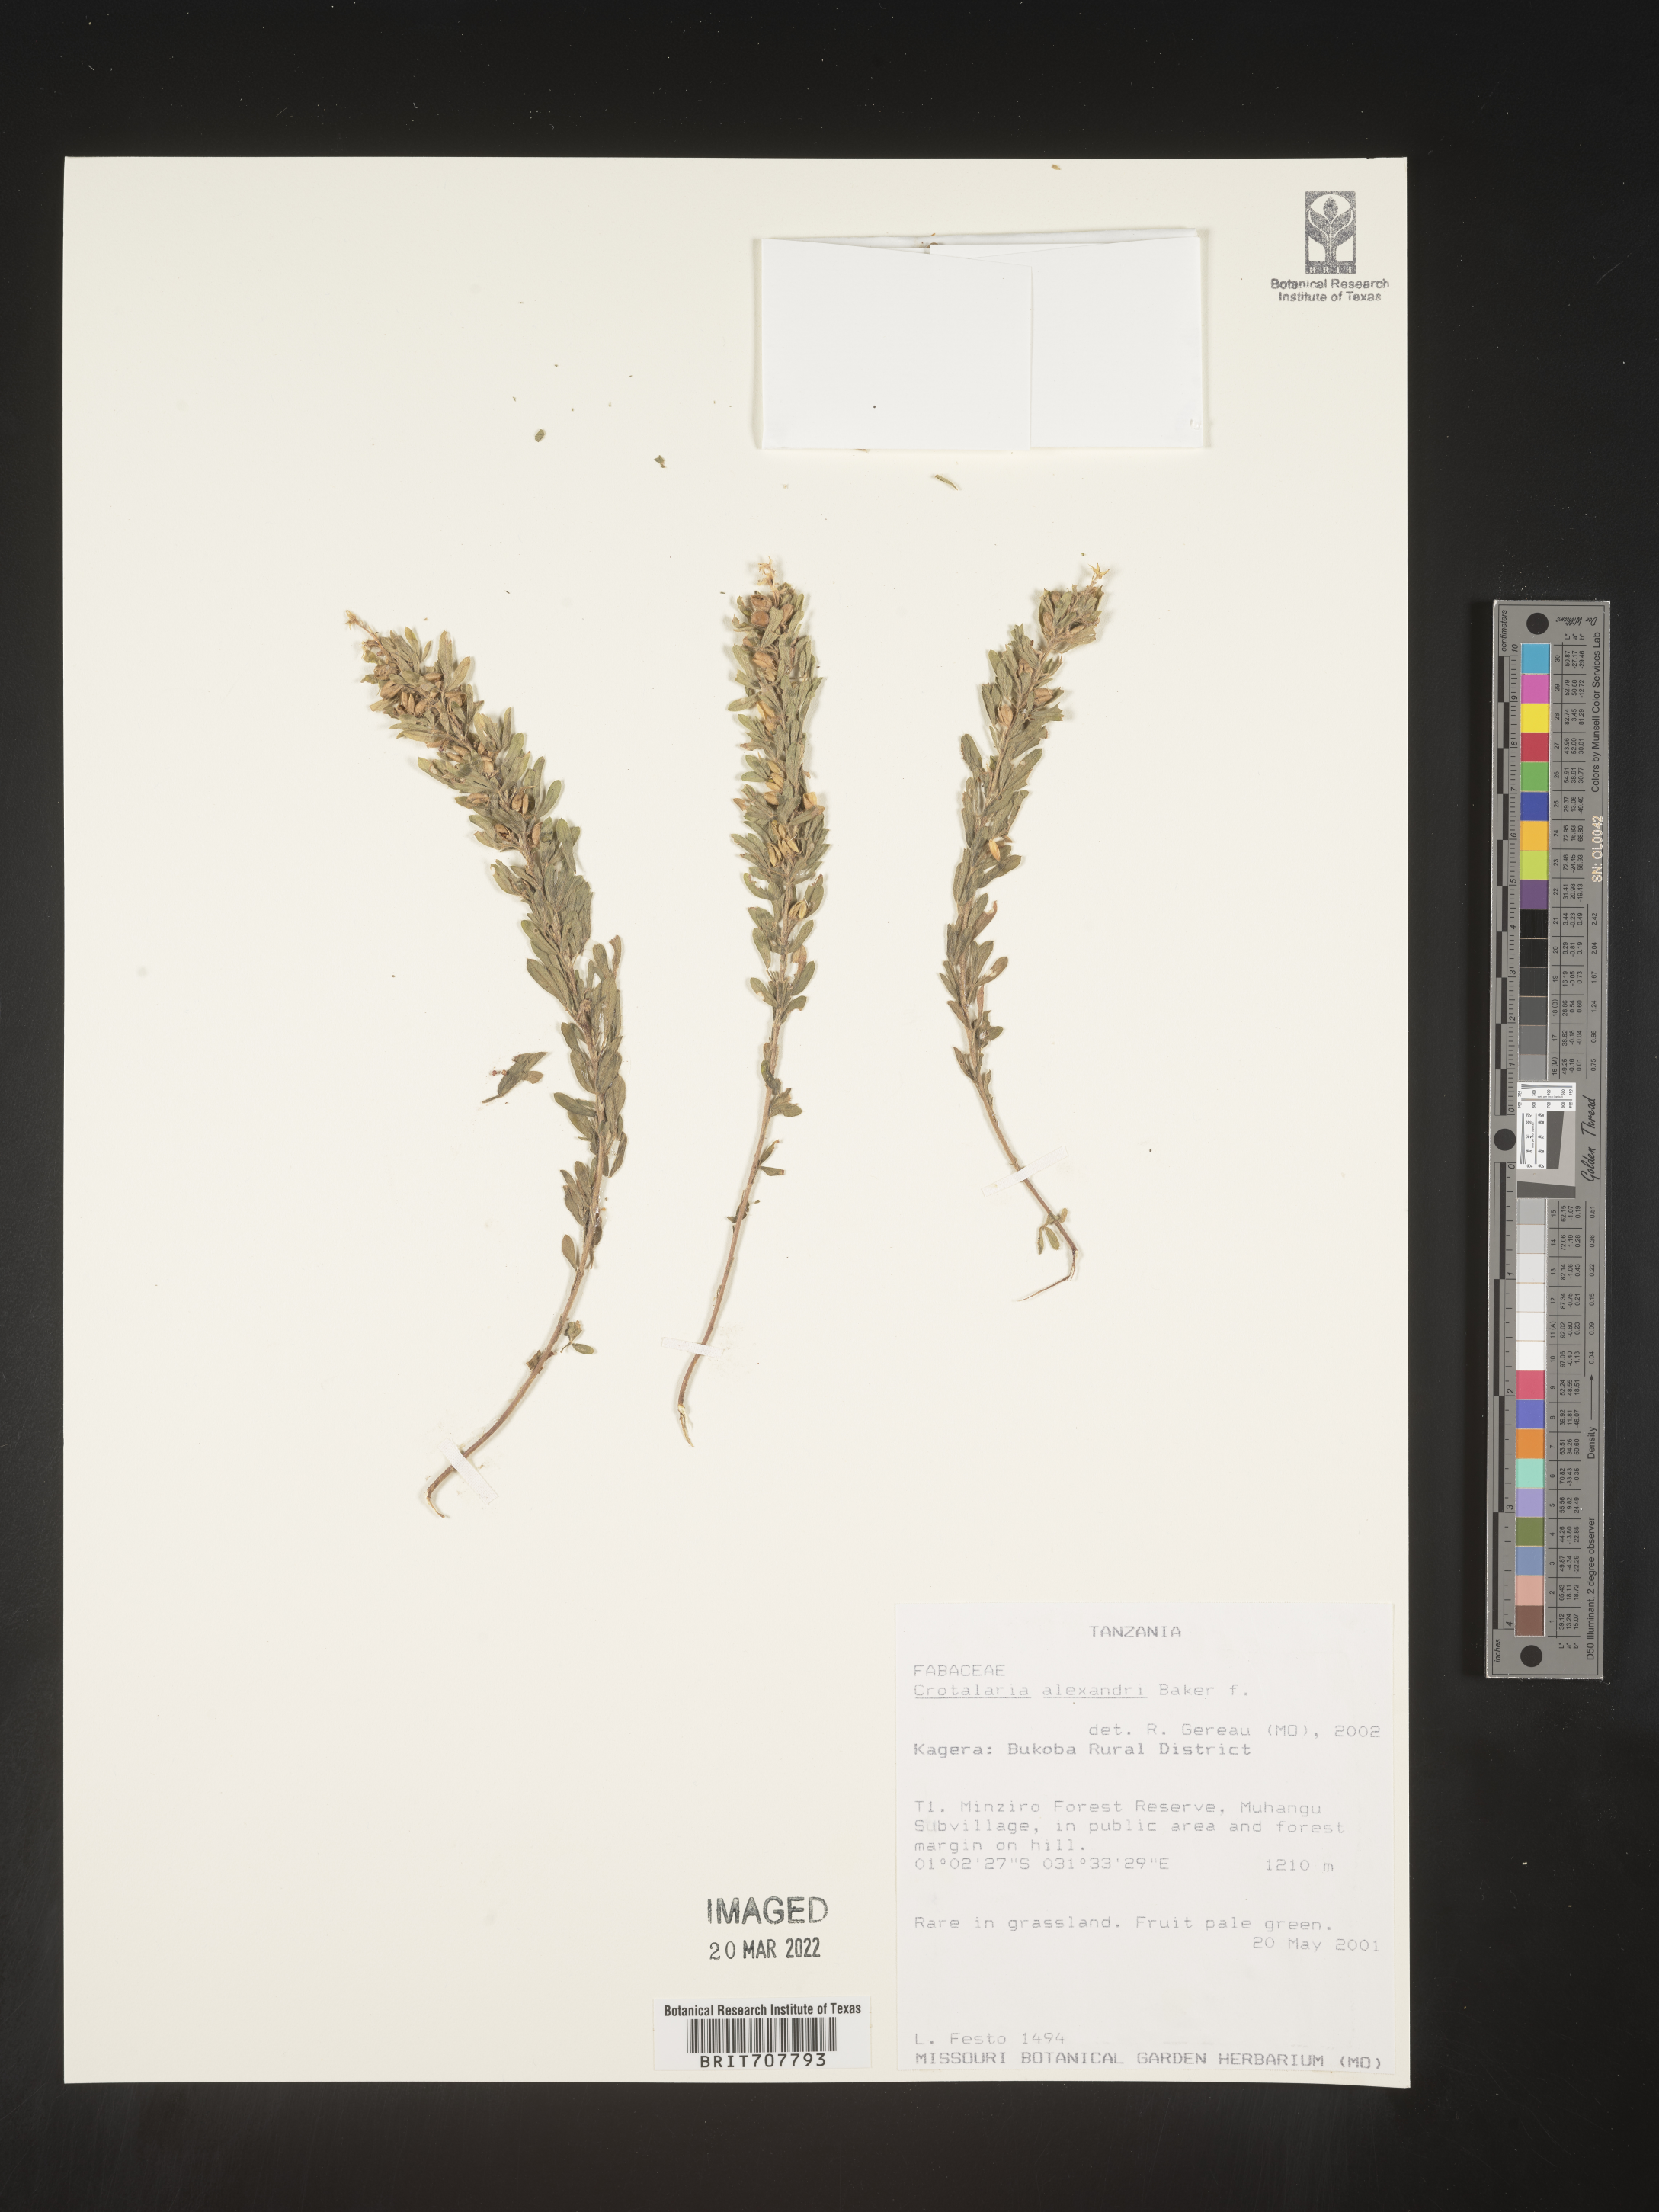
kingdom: Plantae
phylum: Tracheophyta
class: Magnoliopsida
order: Fabales
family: Fabaceae
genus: Crotalaria
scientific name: Crotalaria
